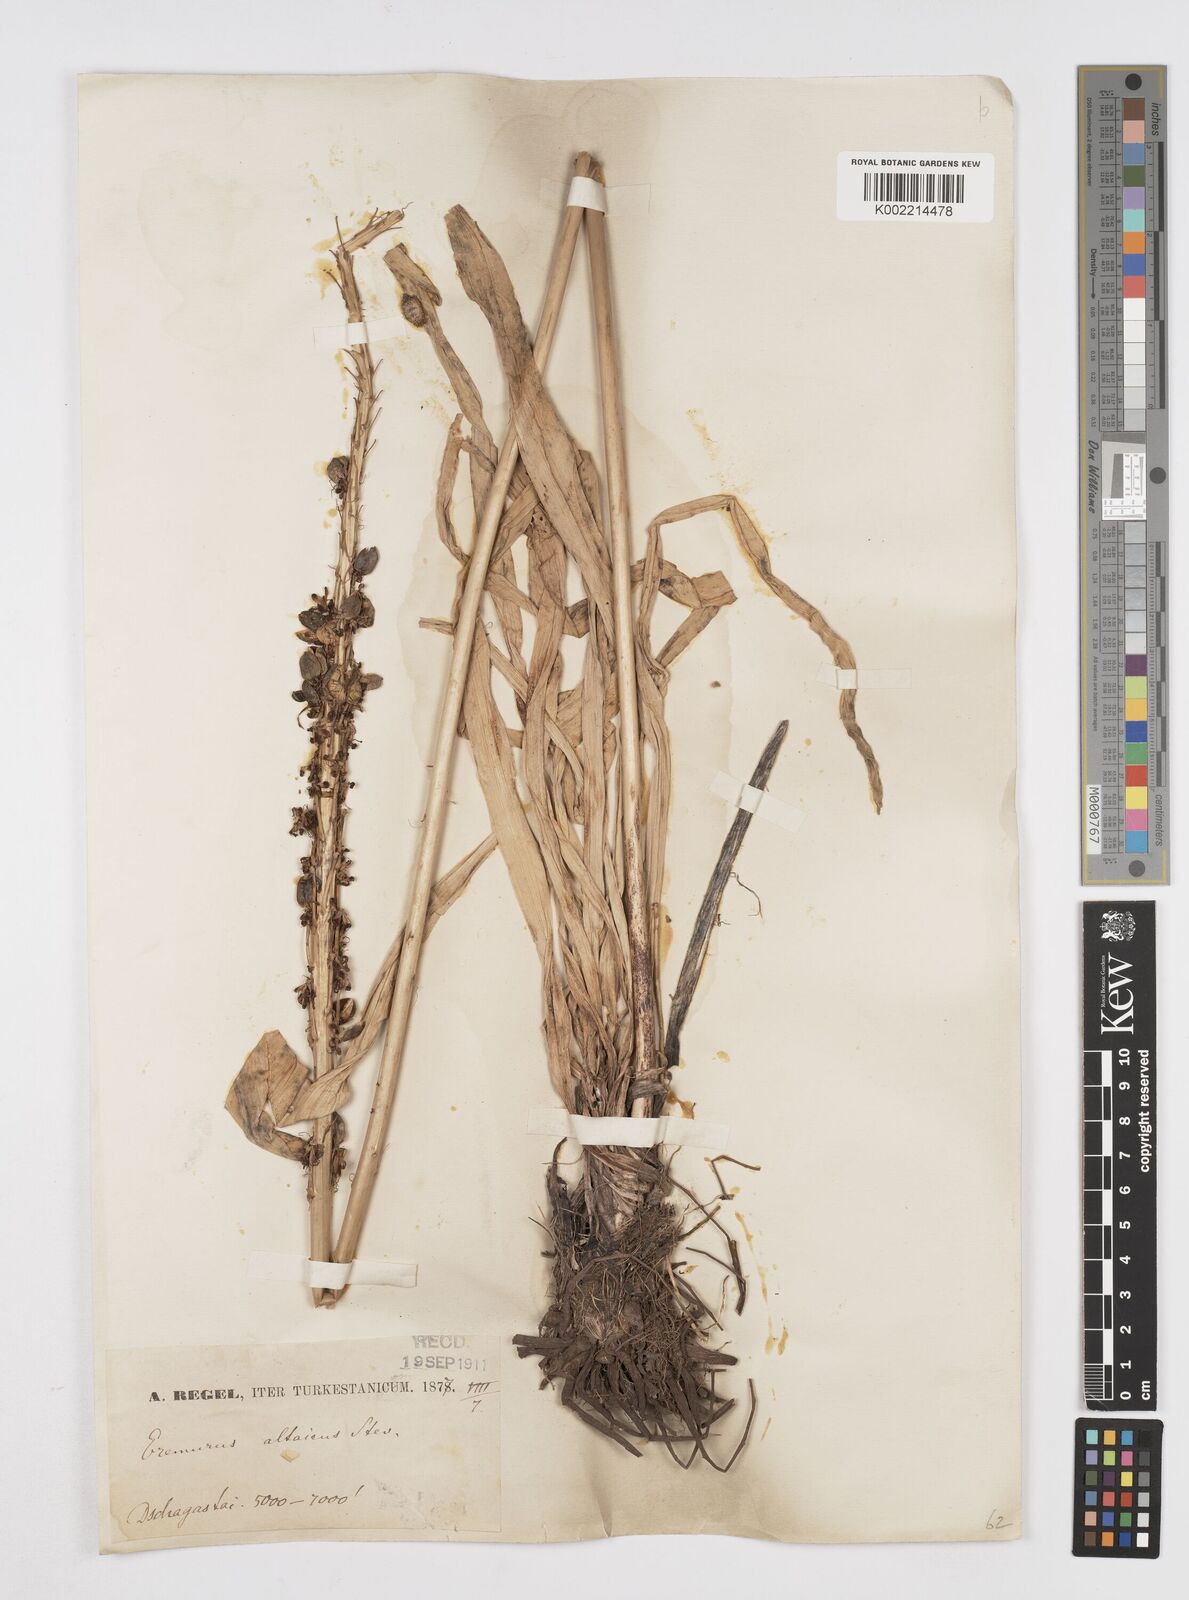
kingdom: Plantae
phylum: Tracheophyta
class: Liliopsida
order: Asparagales
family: Asphodelaceae
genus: Eremurus
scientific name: Eremurus altaicus
